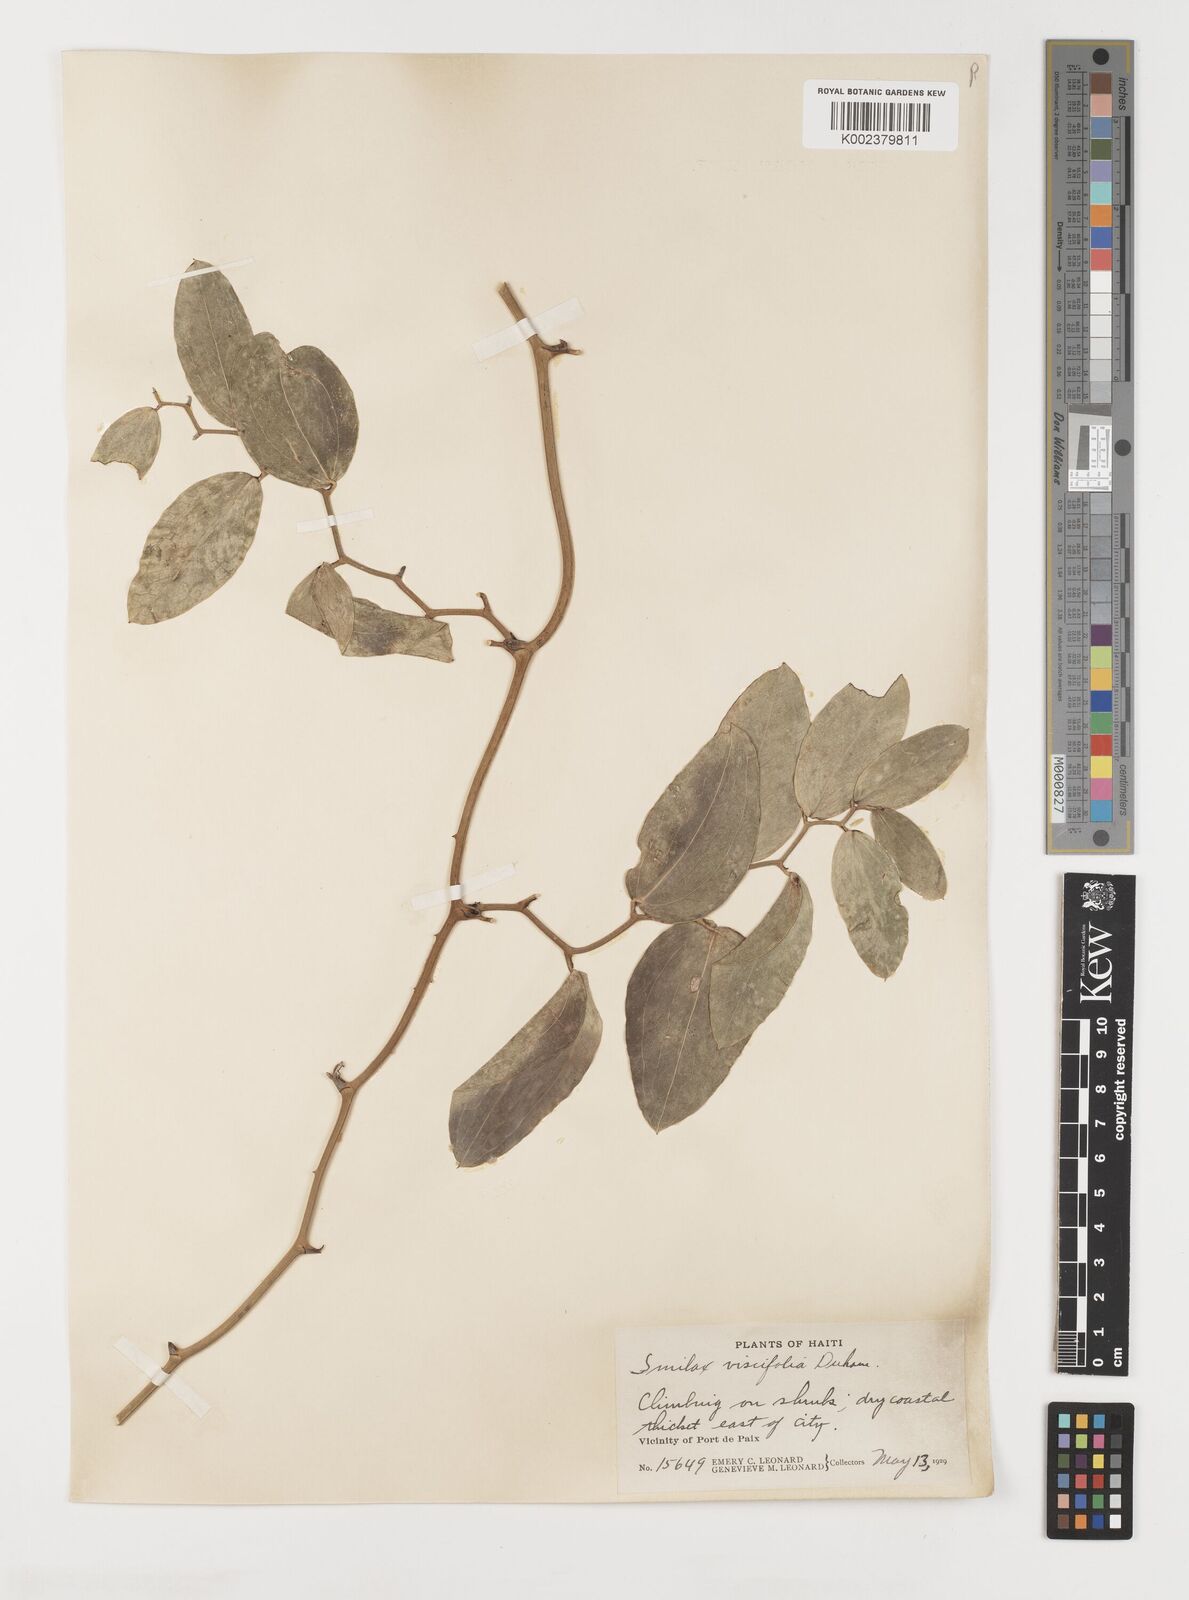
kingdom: Plantae
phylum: Tracheophyta
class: Liliopsida
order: Liliales
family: Smilacaceae
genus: Smilax
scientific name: Smilax oblongata
